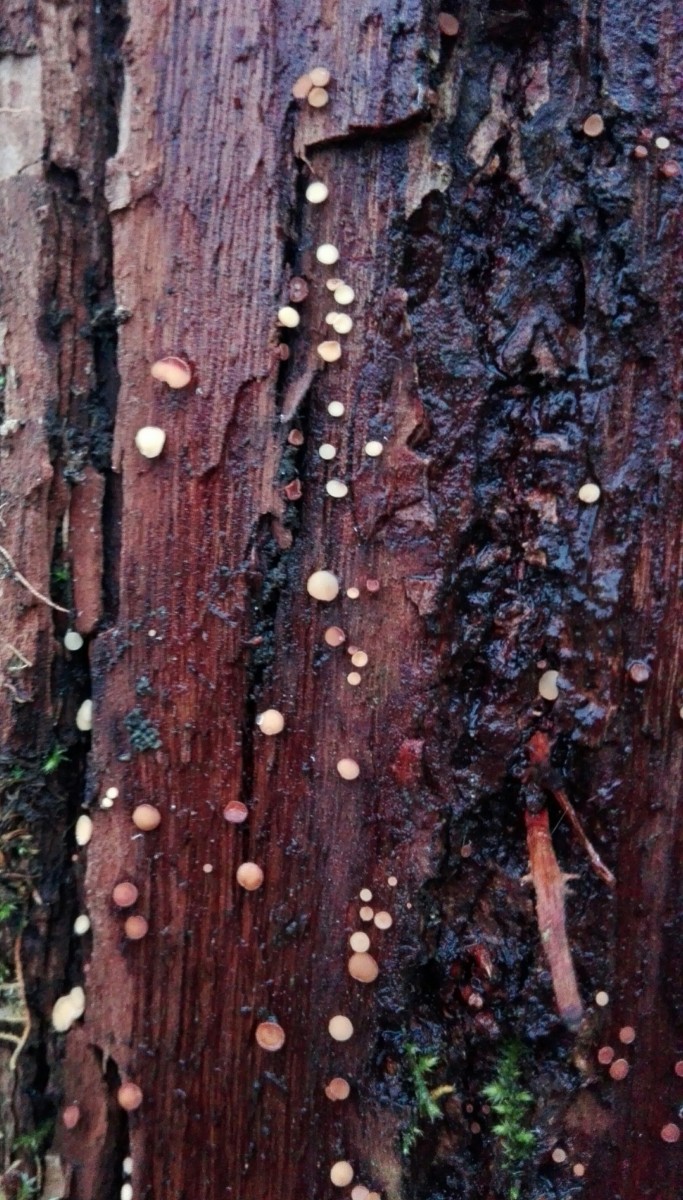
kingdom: Fungi
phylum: Ascomycota
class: Leotiomycetes
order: Helotiales
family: Helotiaceae
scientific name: Helotiaceae
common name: stilkskivefamilien
